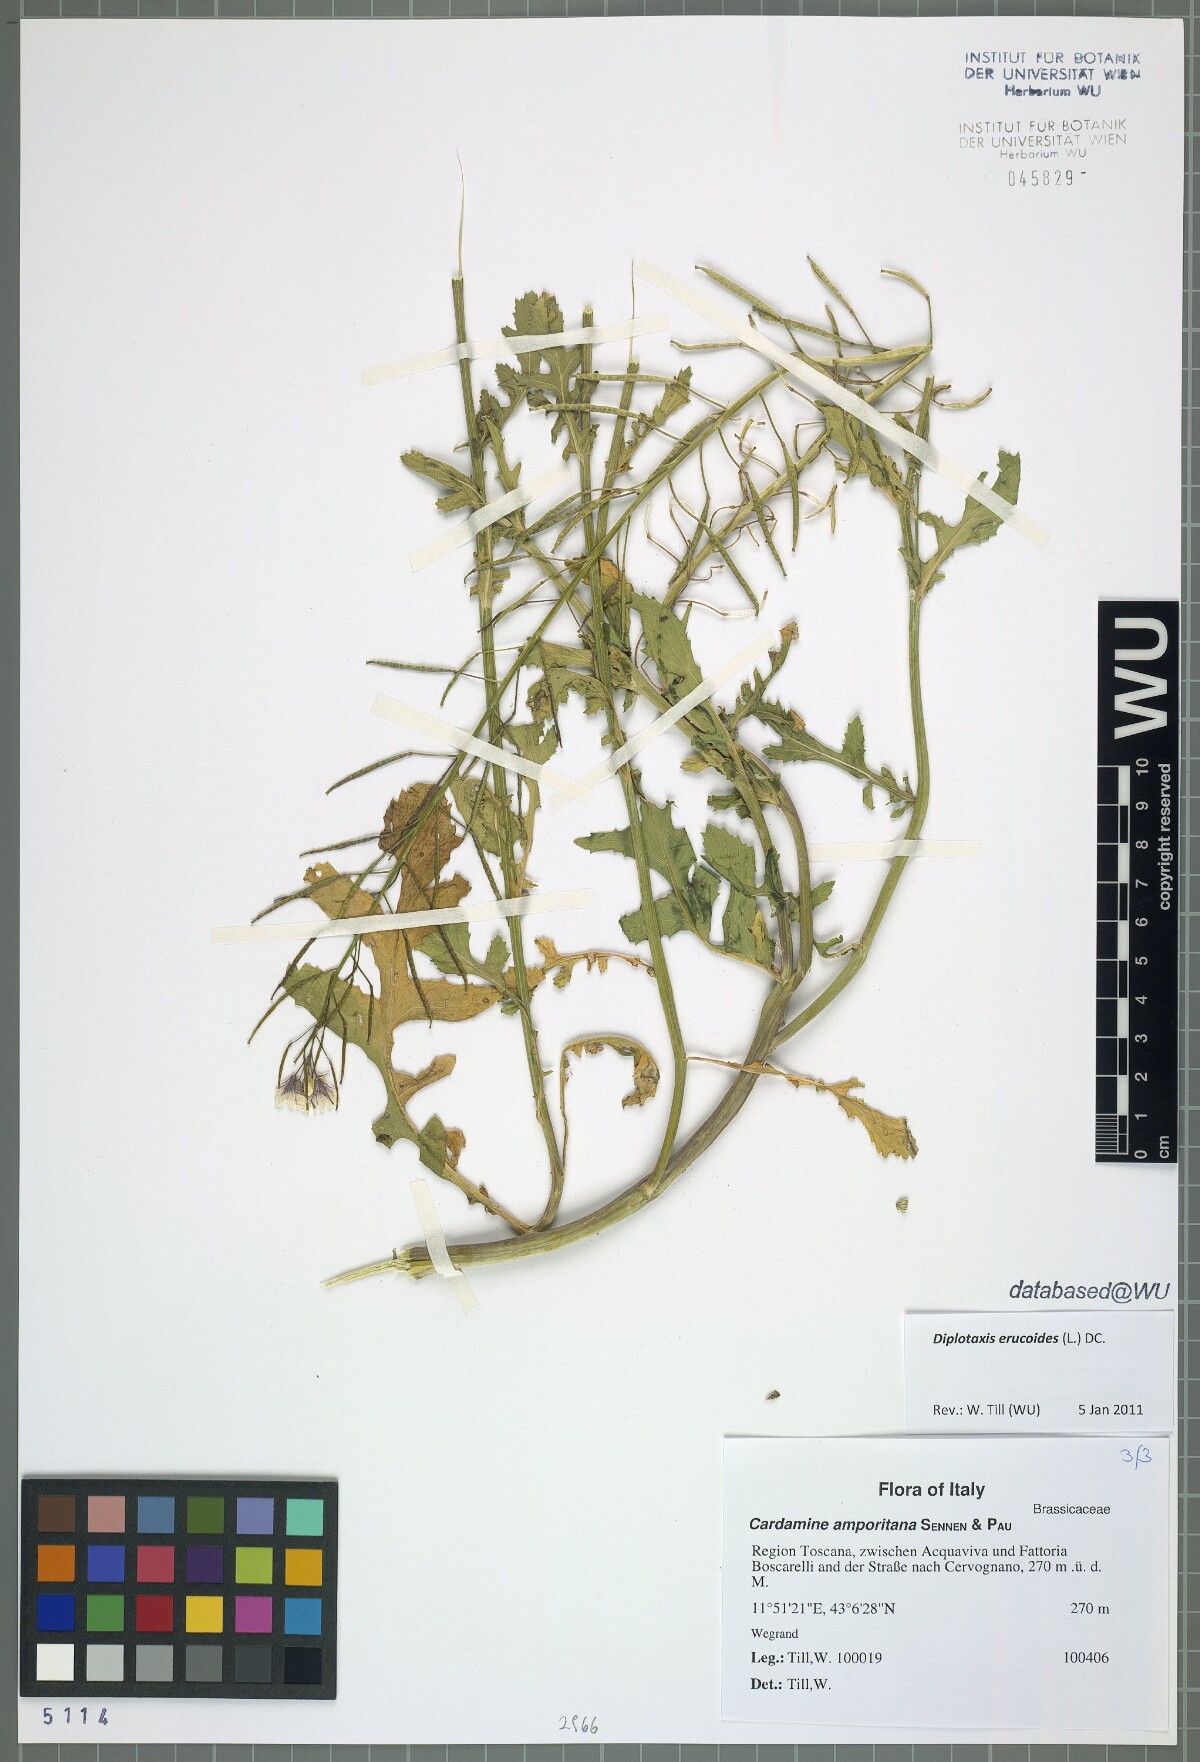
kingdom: Plantae
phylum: Tracheophyta
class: Magnoliopsida
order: Brassicales
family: Brassicaceae
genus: Diplotaxis
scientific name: Diplotaxis erucoides
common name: White rocket
